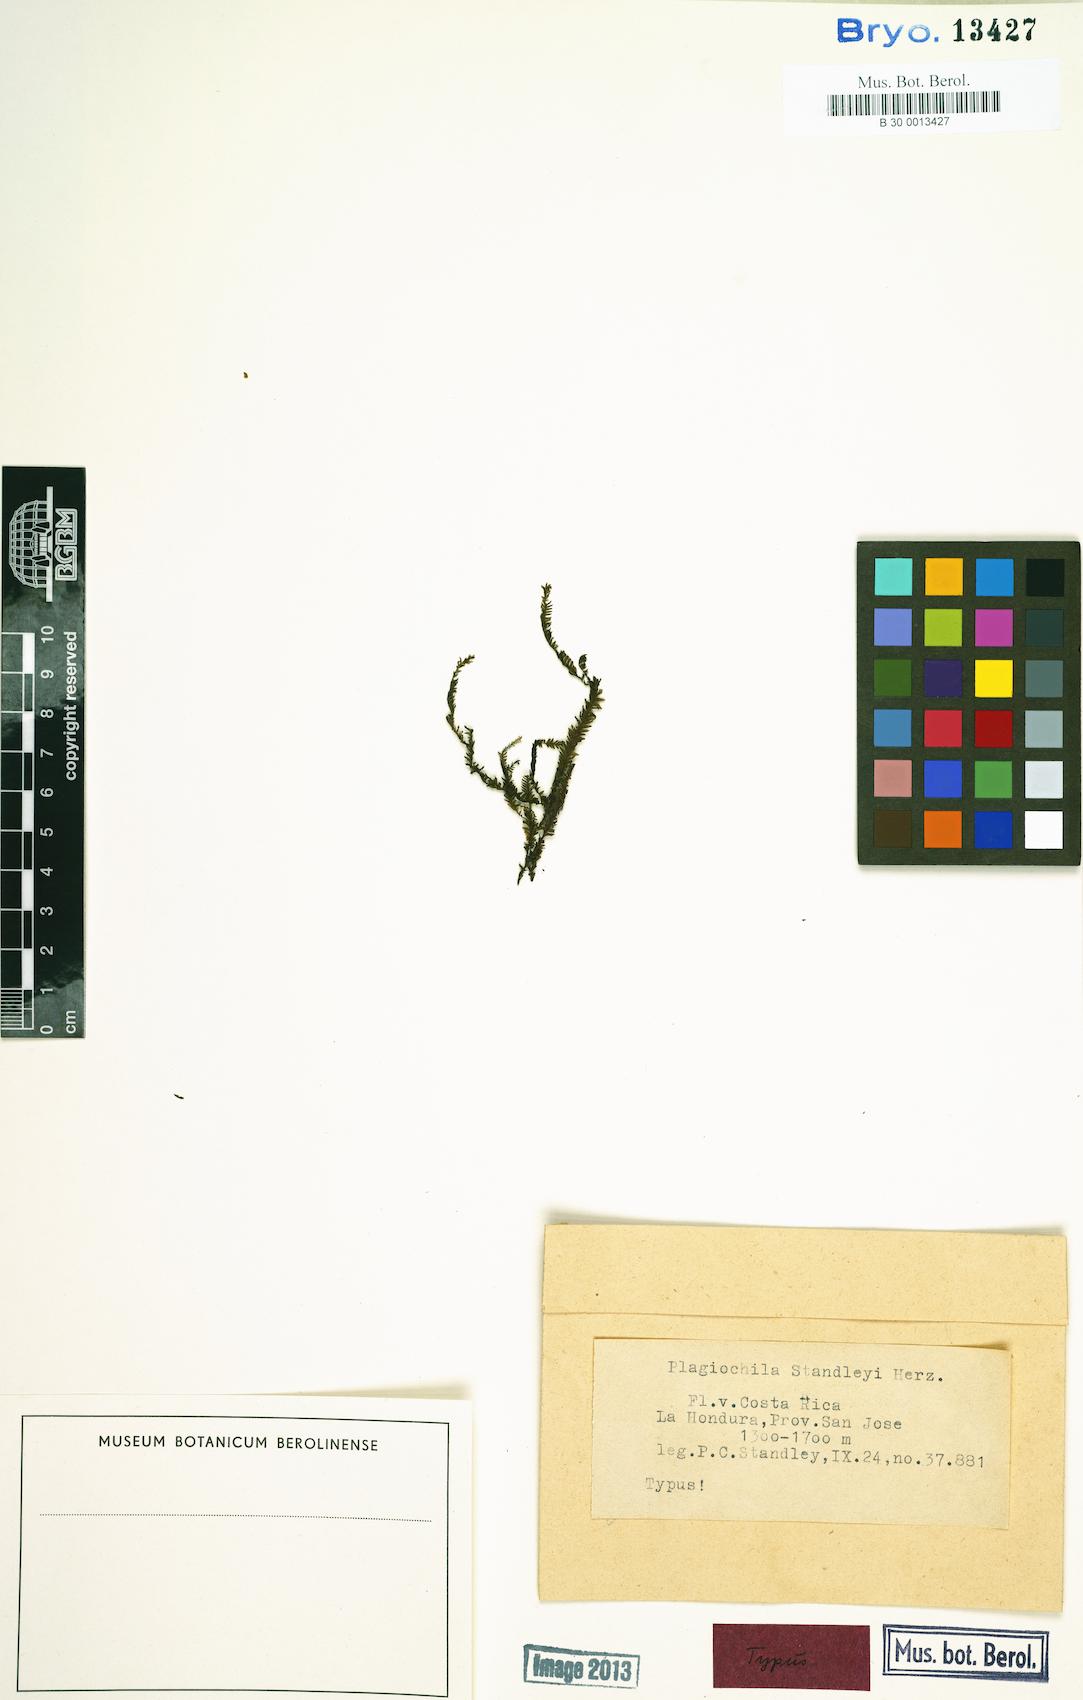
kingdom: Plantae
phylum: Marchantiophyta
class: Jungermanniopsida
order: Jungermanniales
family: Plagiochilaceae
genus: Plagiochila
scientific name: Plagiochila rutilans
